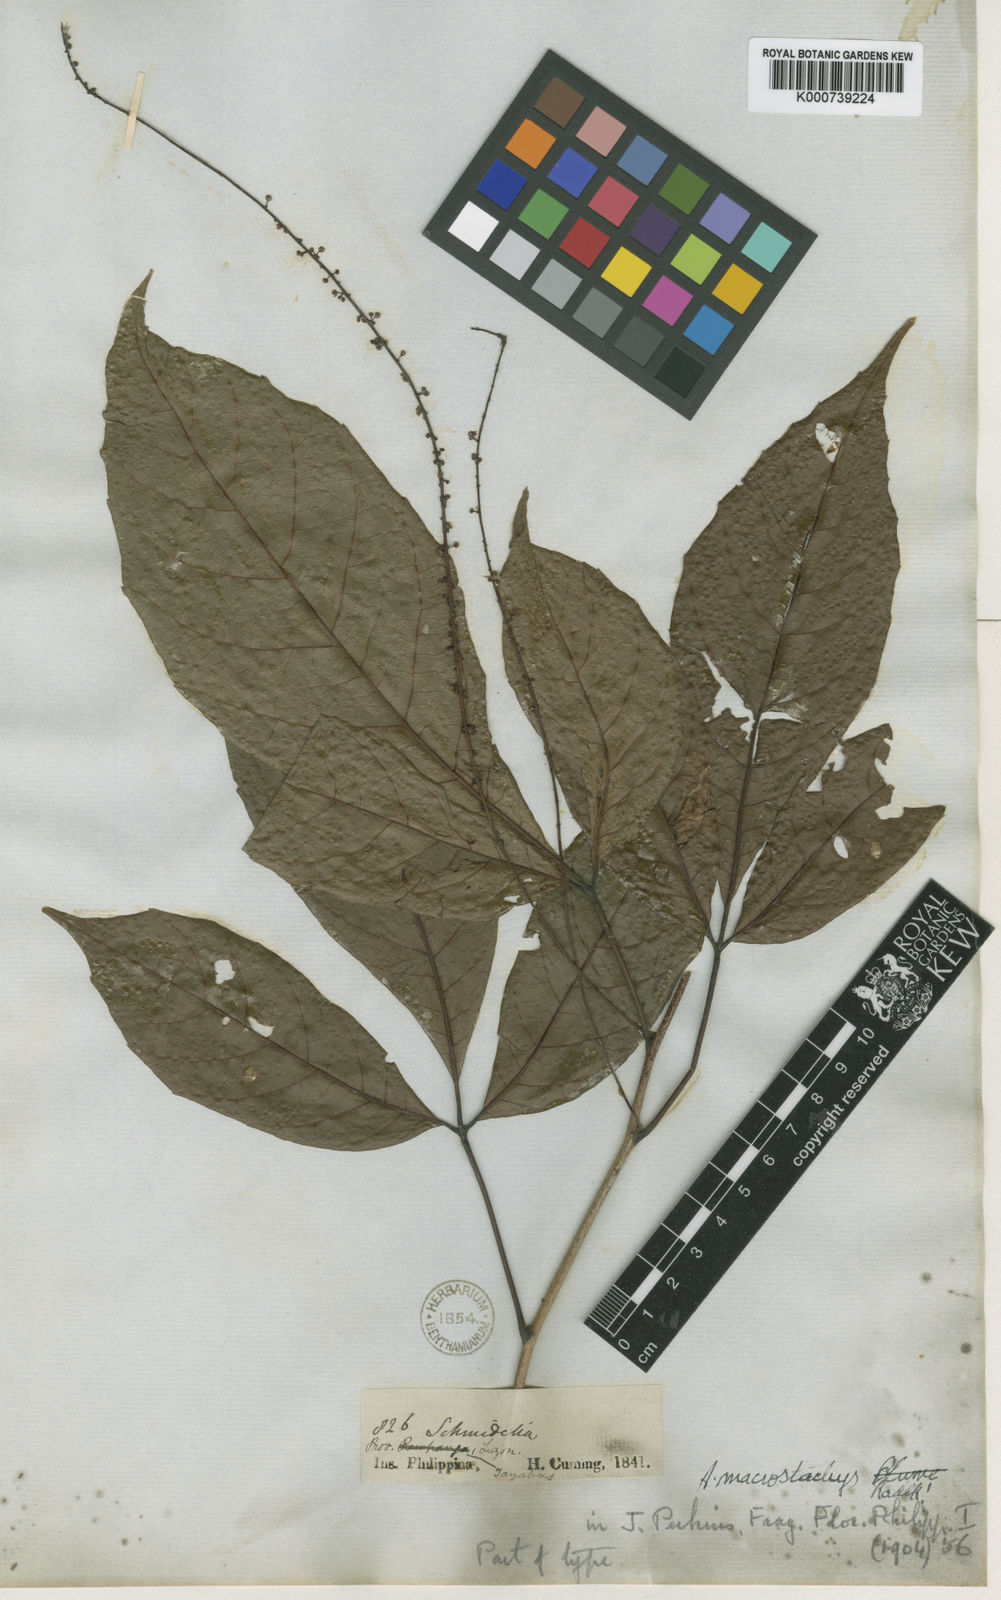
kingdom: Plantae
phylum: Tracheophyta
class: Magnoliopsida
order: Sapindales
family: Sapindaceae
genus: Allophylus
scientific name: Allophylus macrostachys
